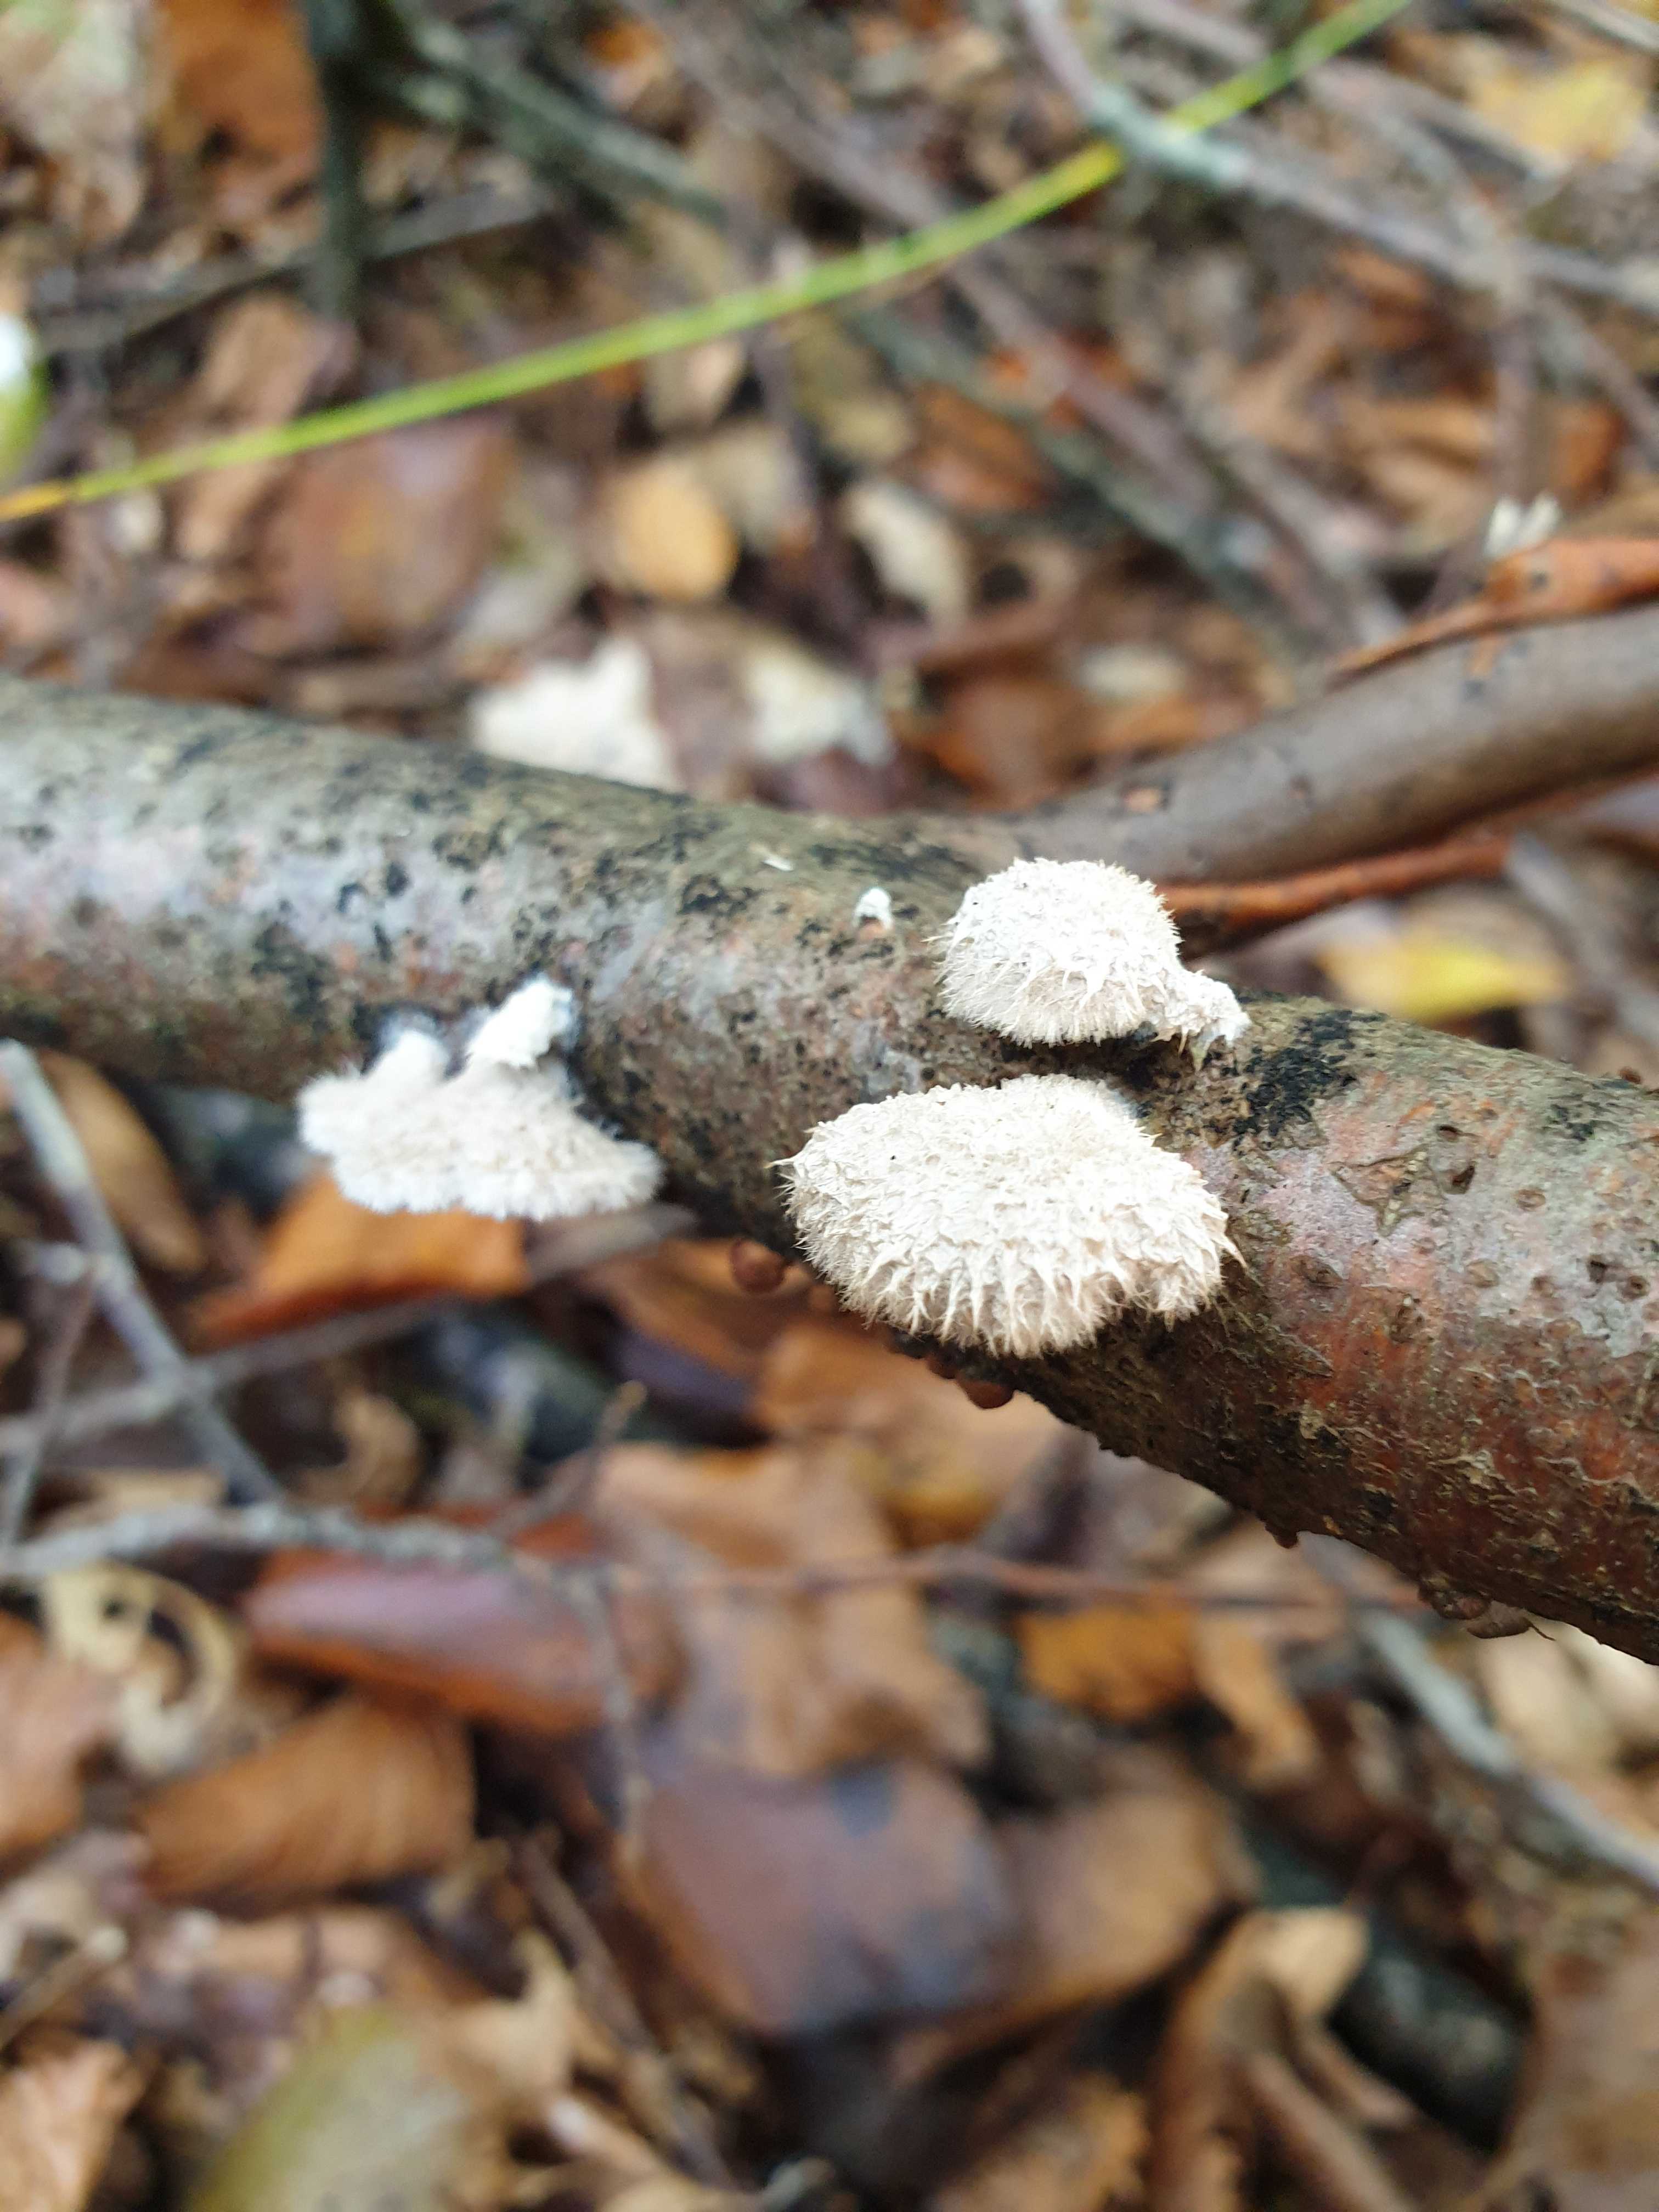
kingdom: Fungi
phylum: Basidiomycota
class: Agaricomycetes
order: Agaricales
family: Schizophyllaceae
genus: Schizophyllum
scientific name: Schizophyllum commune
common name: kløvblad
